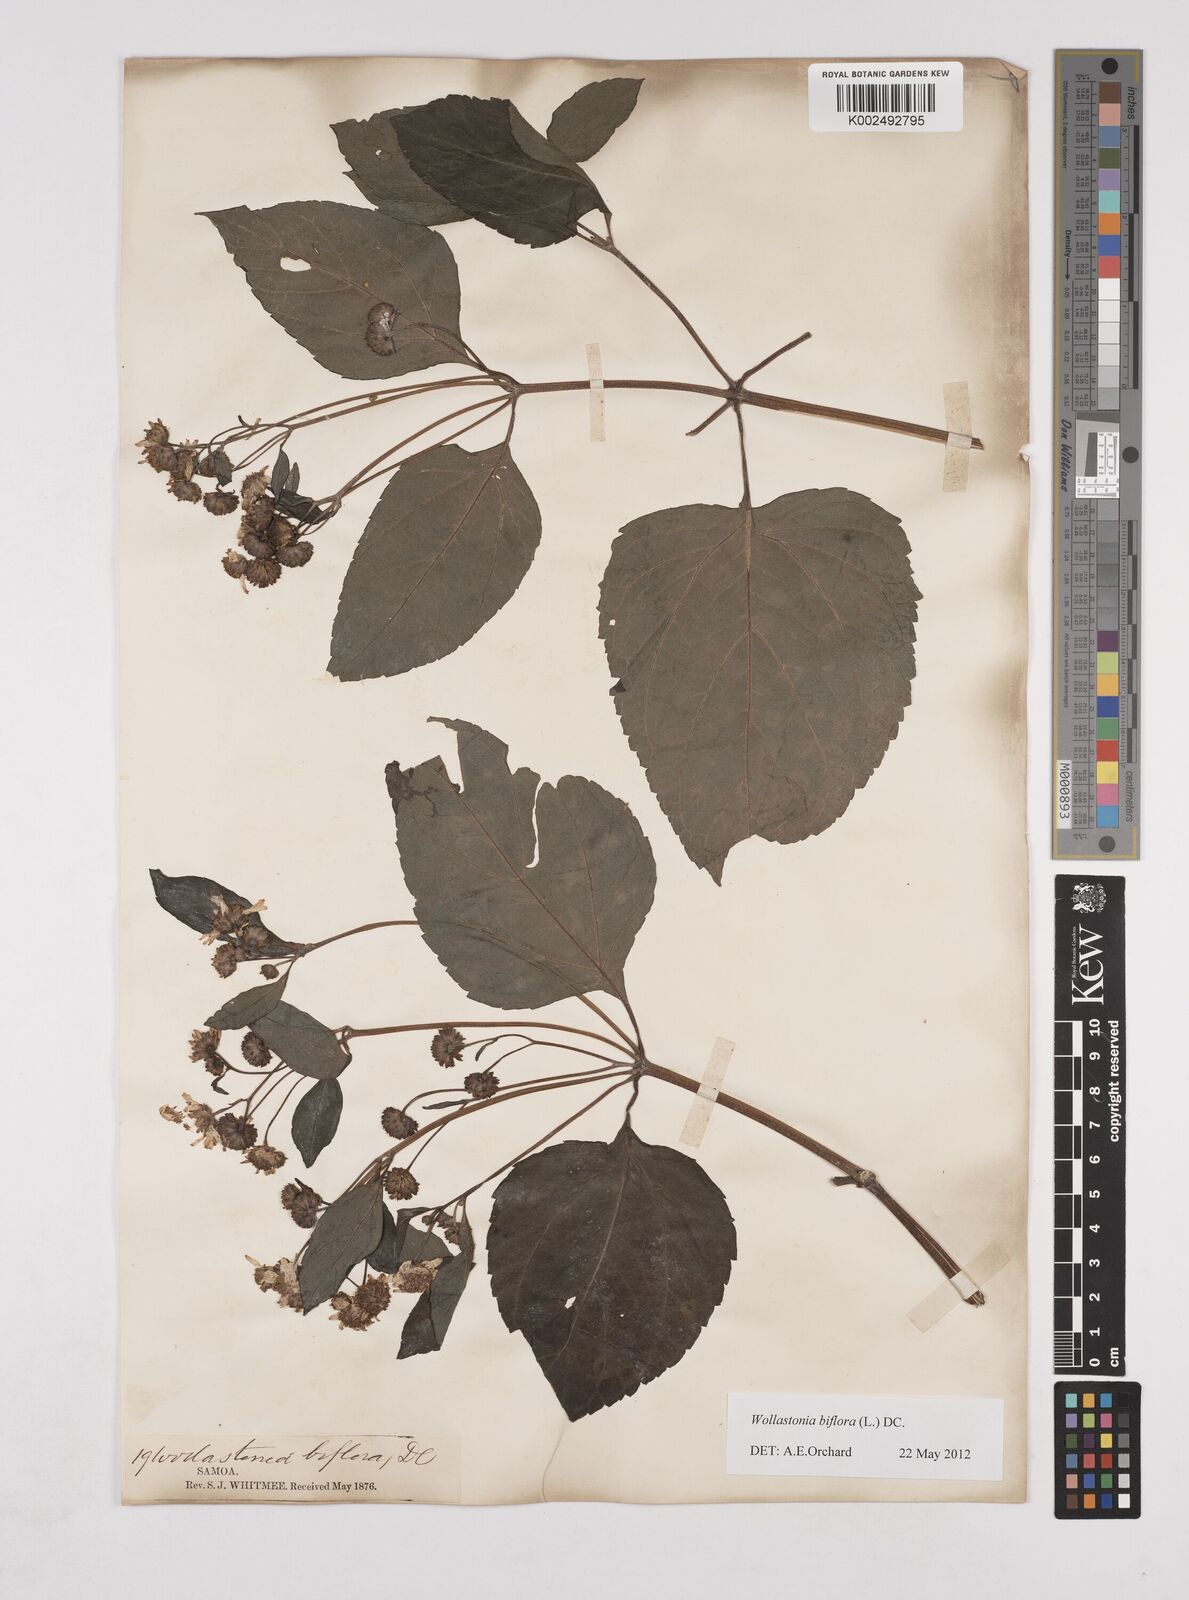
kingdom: Plantae
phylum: Tracheophyta
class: Magnoliopsida
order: Asterales
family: Asteraceae
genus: Wollastonia
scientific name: Wollastonia biflora
